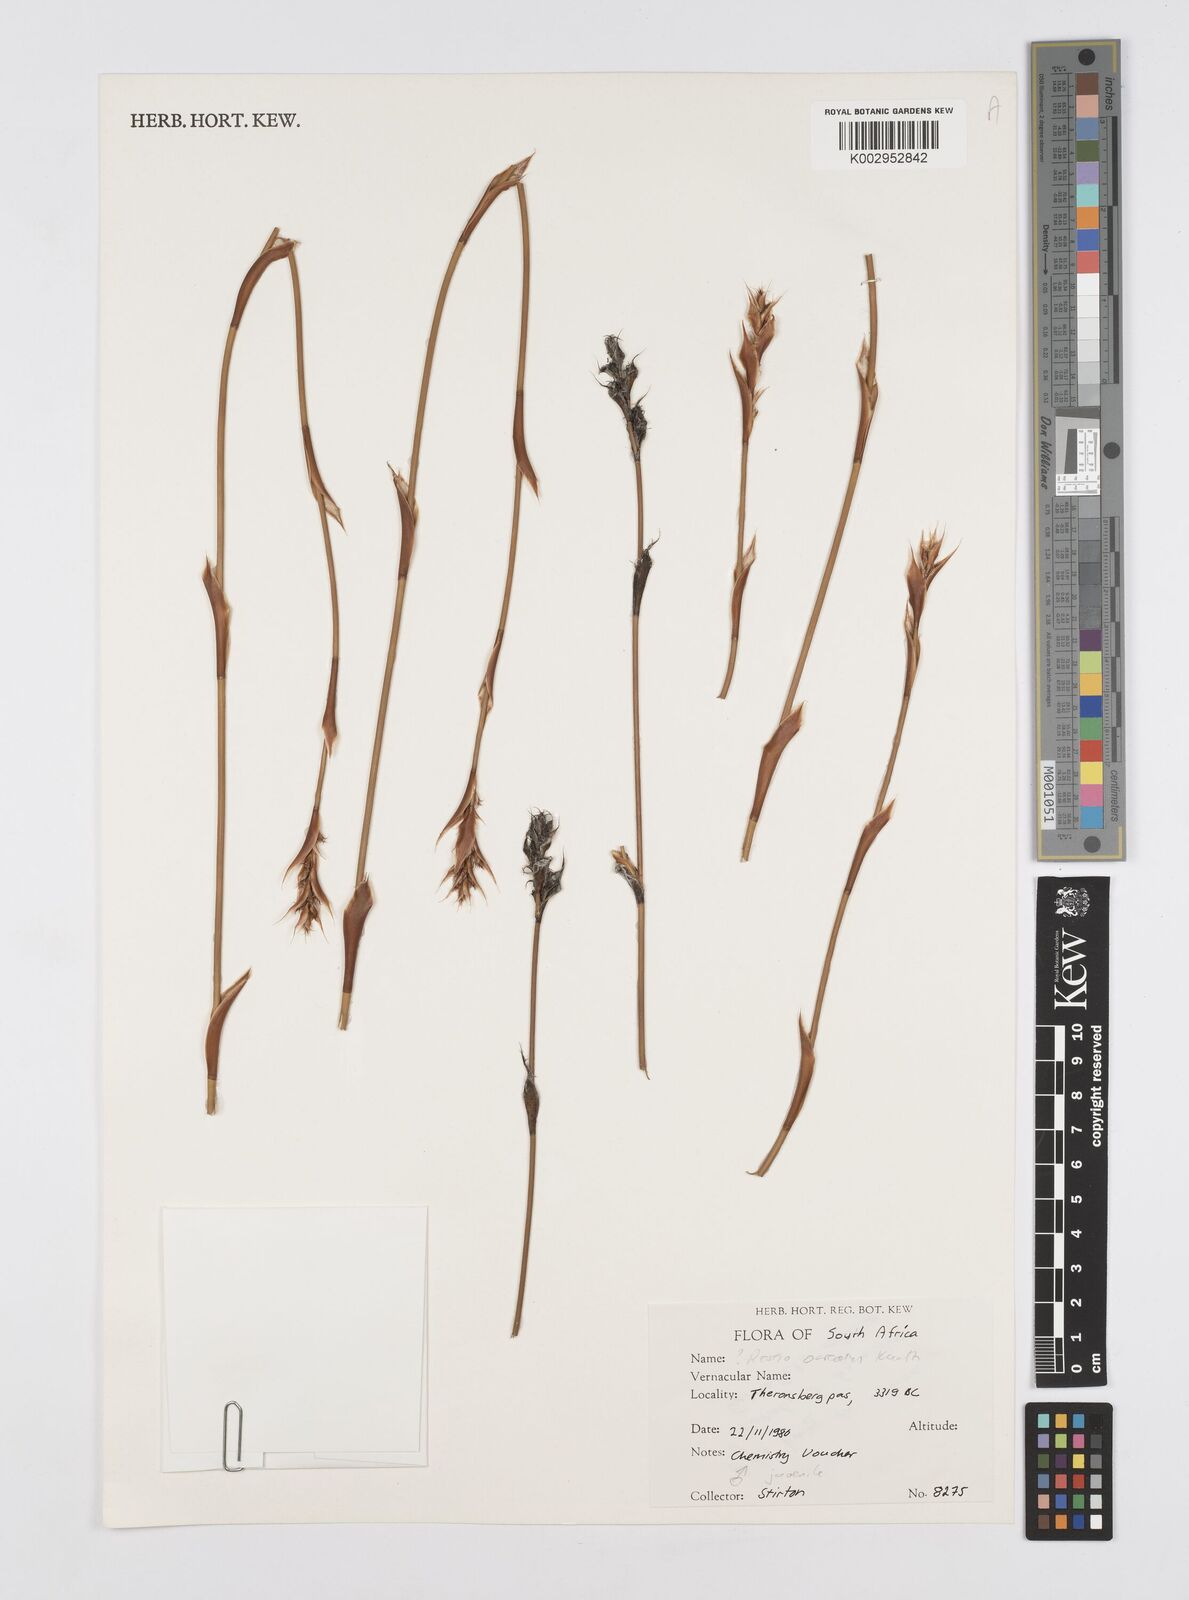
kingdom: Plantae
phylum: Tracheophyta
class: Liliopsida
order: Poales
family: Restionaceae
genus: Restio
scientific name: Restio ocreatus
